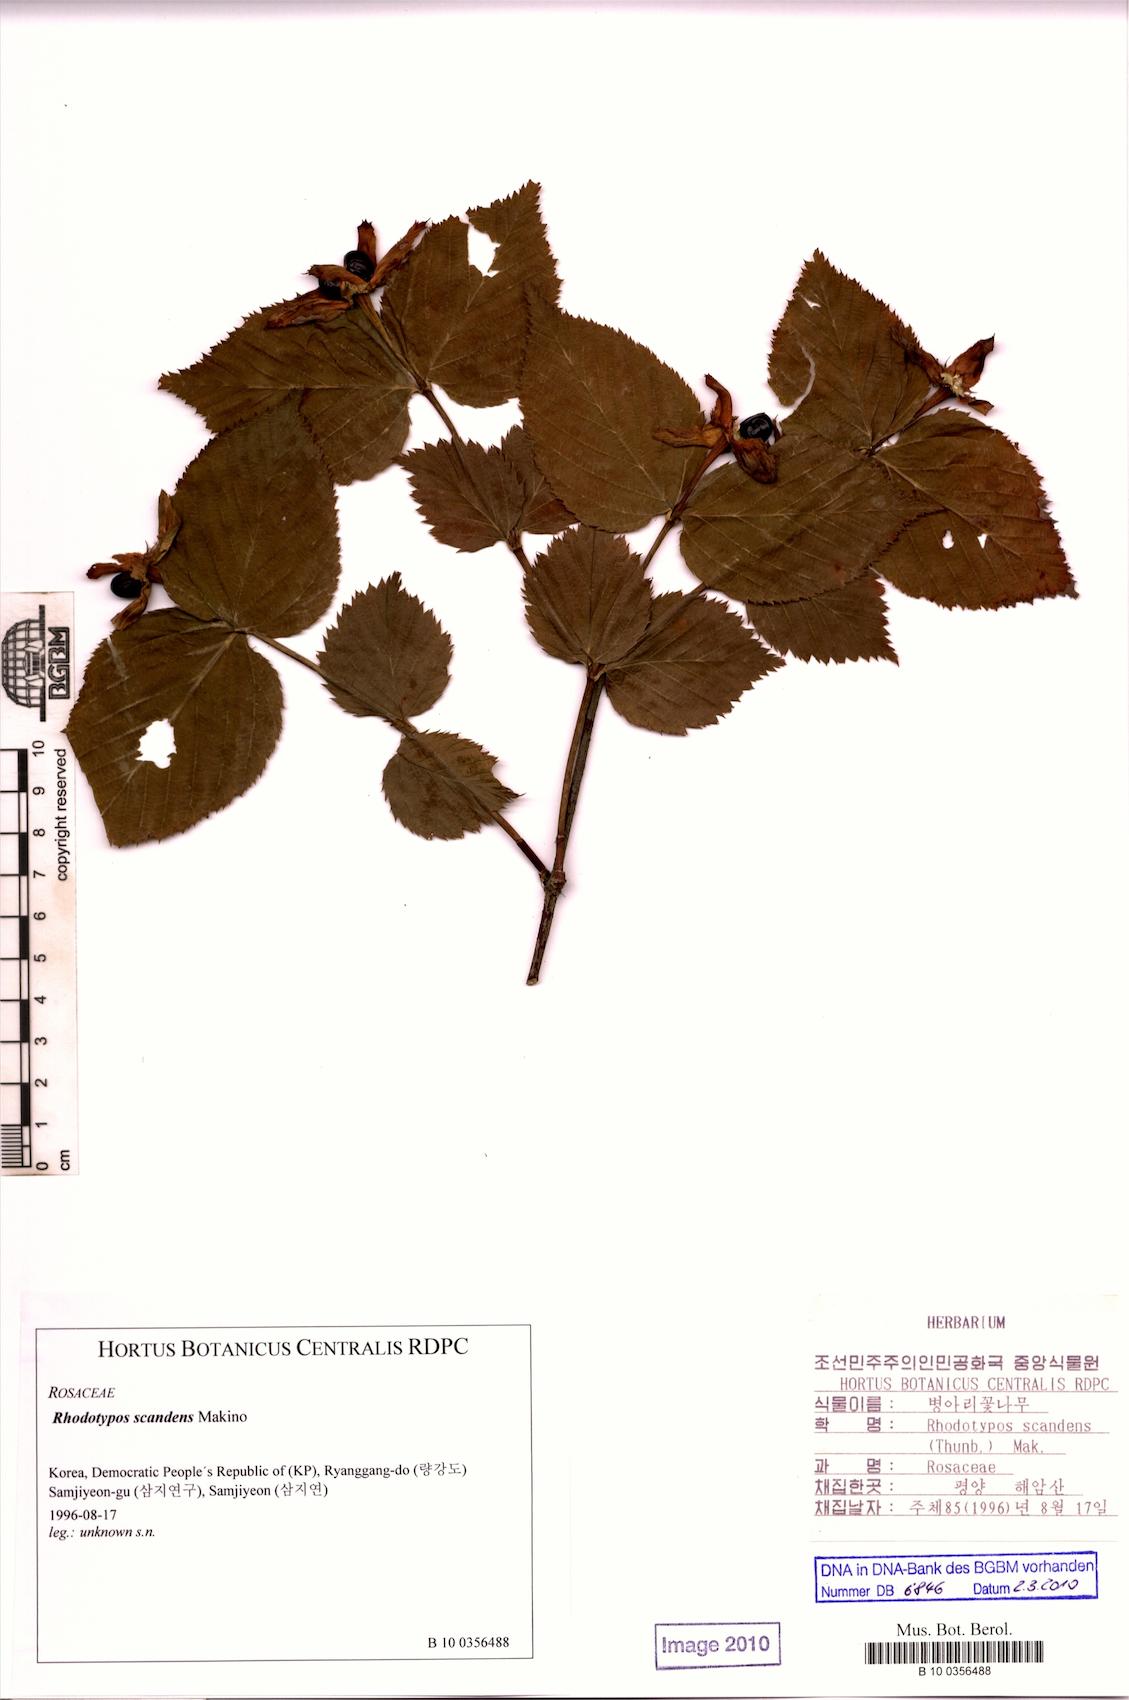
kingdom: Plantae
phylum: Tracheophyta
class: Magnoliopsida
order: Rosales
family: Rosaceae
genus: Rhodotypos
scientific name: Rhodotypos scandens
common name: Jetbead
